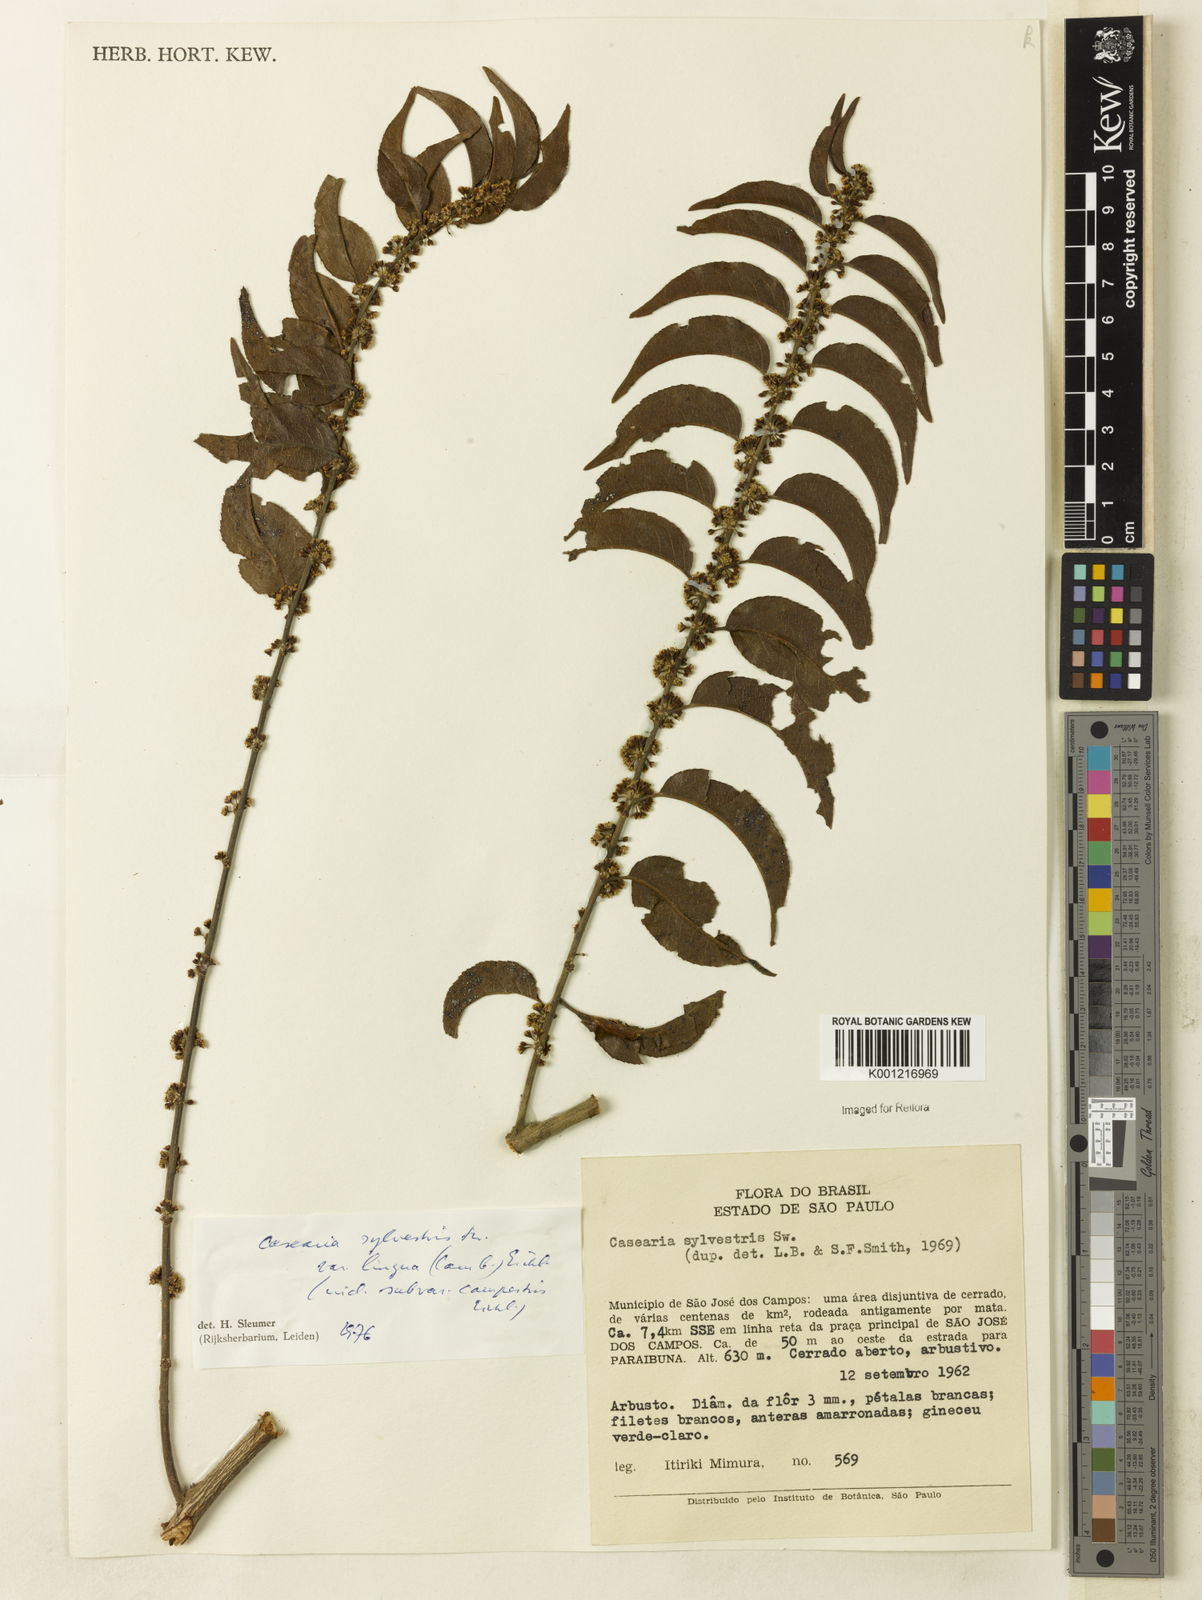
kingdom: Plantae
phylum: Tracheophyta
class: Magnoliopsida
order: Malpighiales
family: Salicaceae
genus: Casearia
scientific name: Casearia sylvestris
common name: Wild sage
